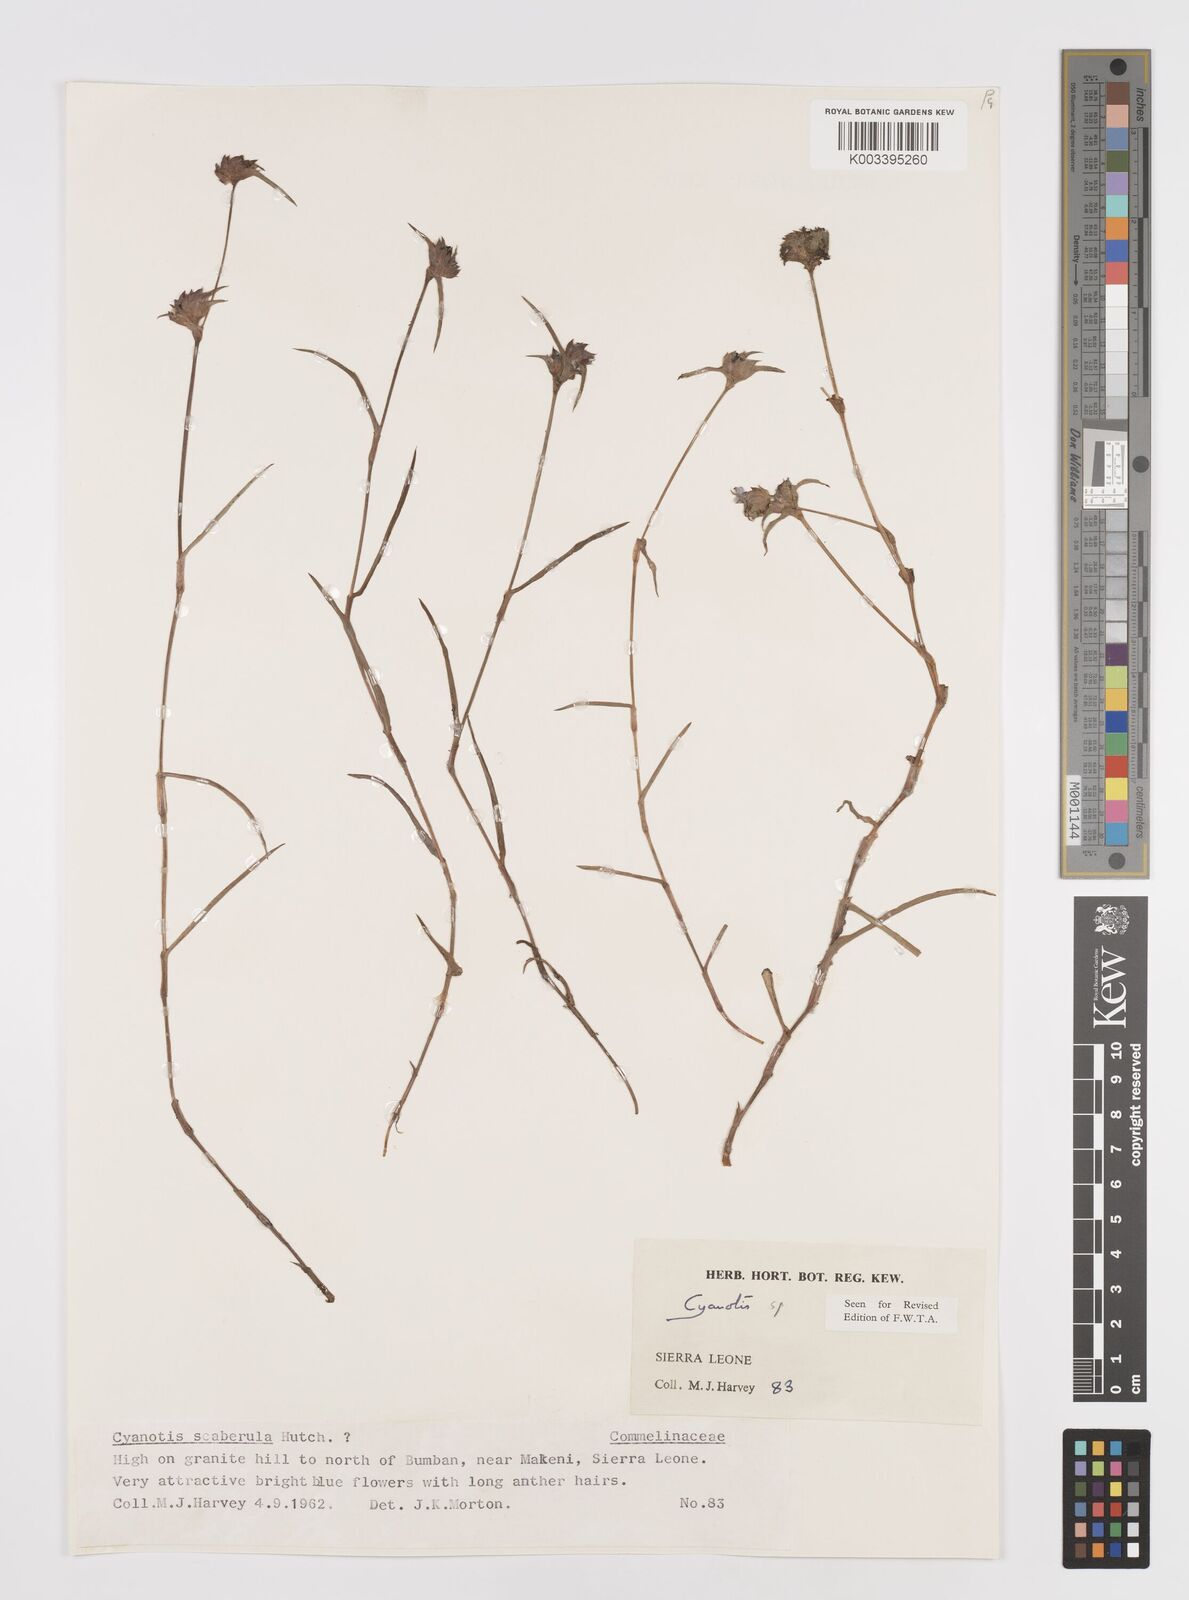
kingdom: Plantae
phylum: Tracheophyta
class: Liliopsida
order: Commelinales
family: Commelinaceae
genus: Cyanotis
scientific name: Cyanotis longifolia
